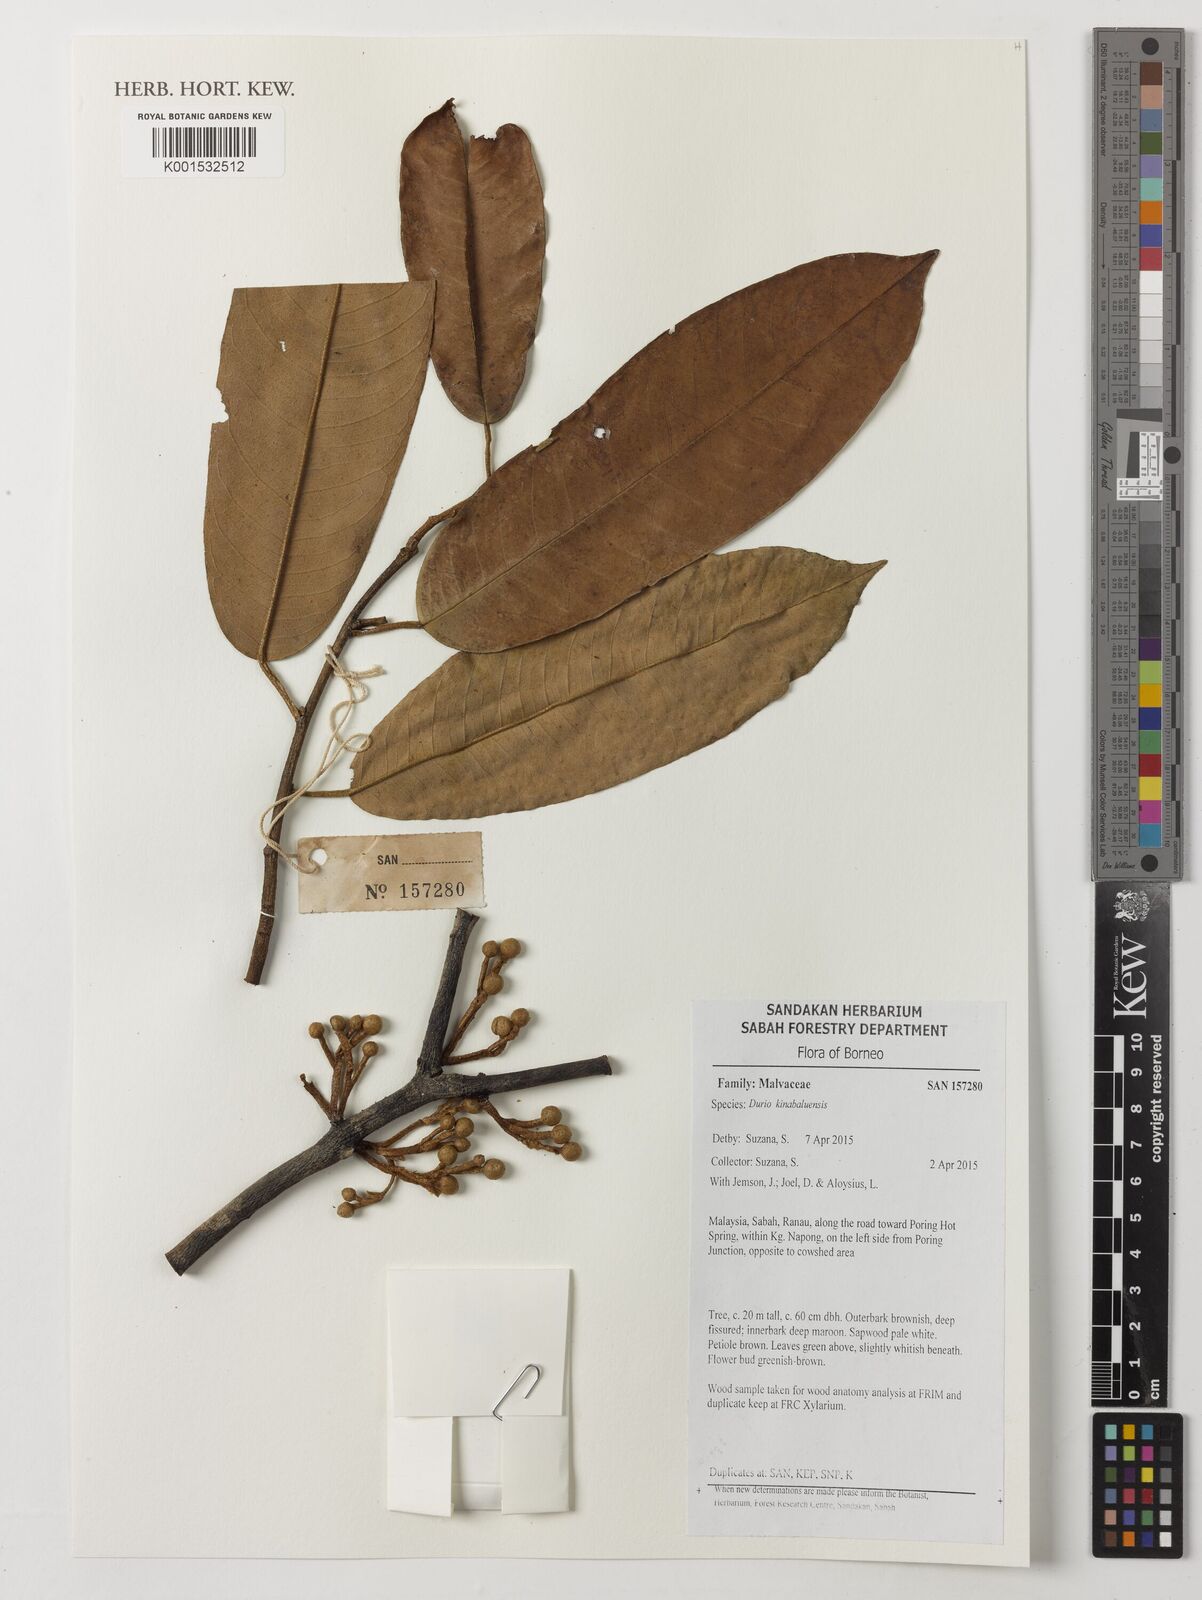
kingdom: Plantae
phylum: Tracheophyta
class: Magnoliopsida
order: Malvales
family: Malvaceae
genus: Durio
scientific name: Durio kinabaluensis
